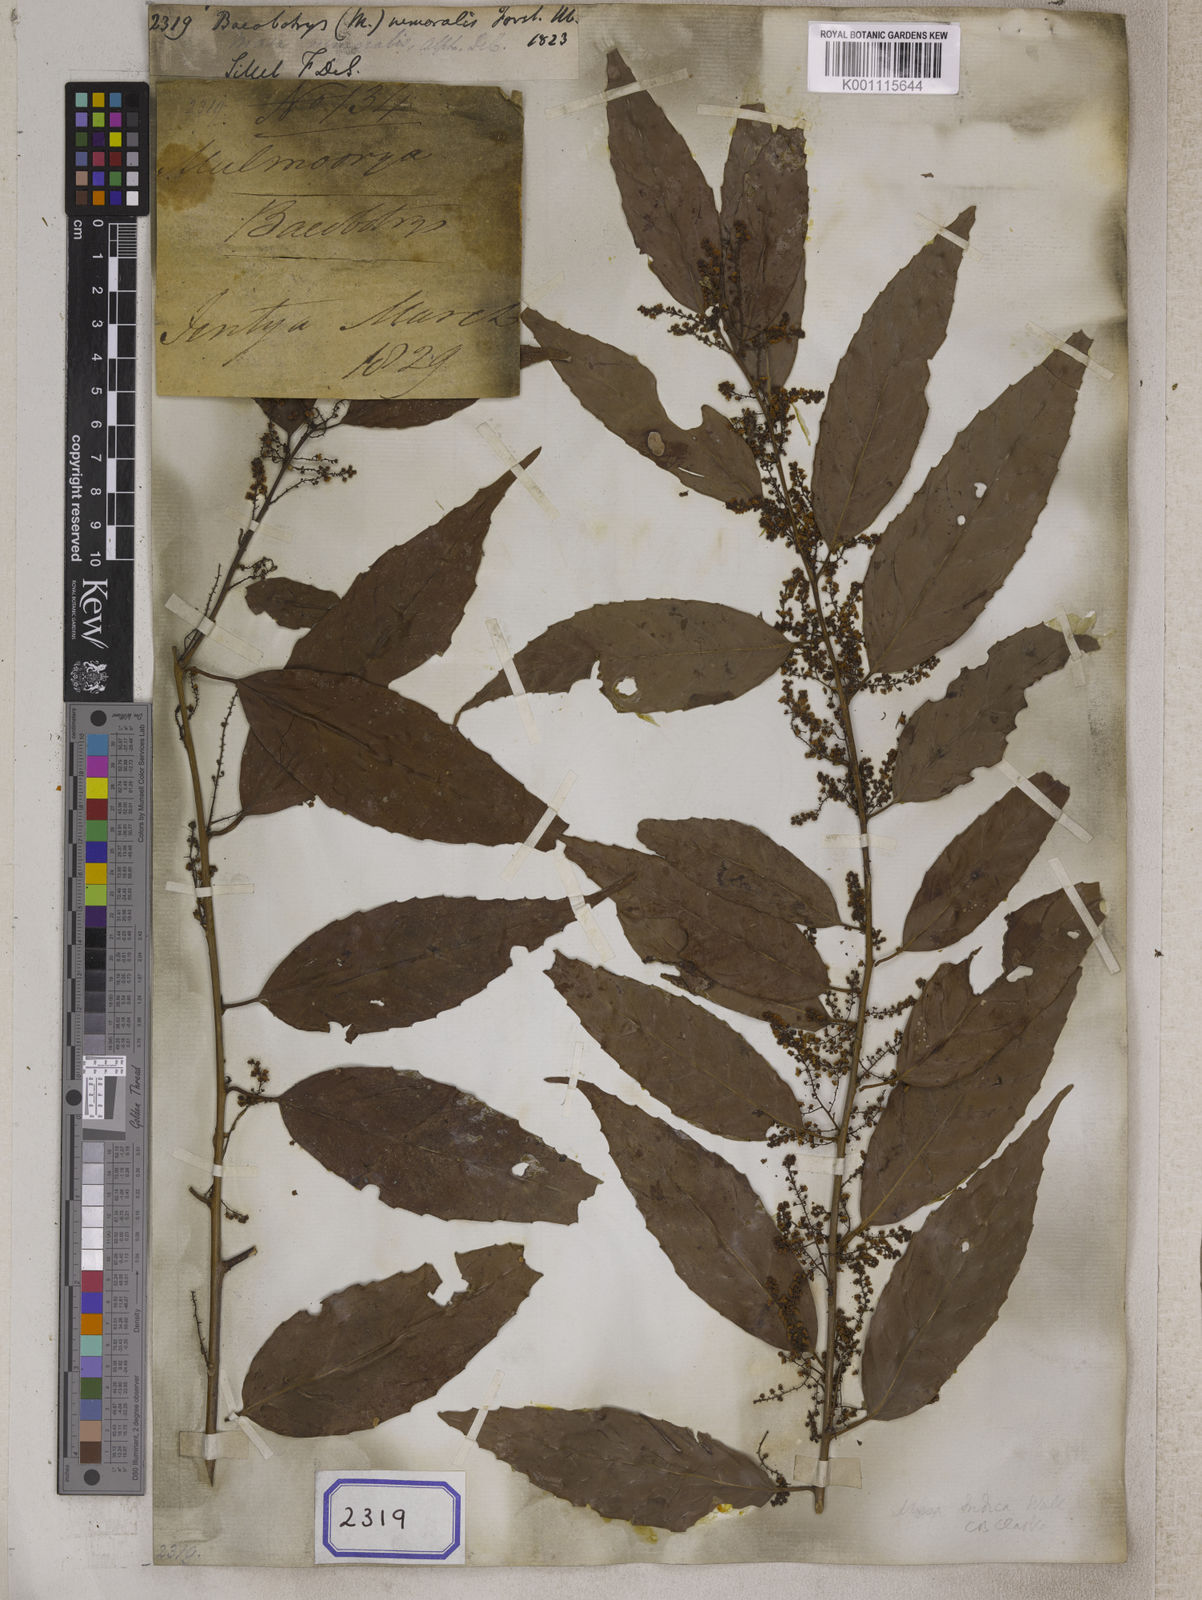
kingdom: Plantae
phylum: Tracheophyta
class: Magnoliopsida
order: Ericales
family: Primulaceae
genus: Maesa
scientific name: Maesa nemoralis
